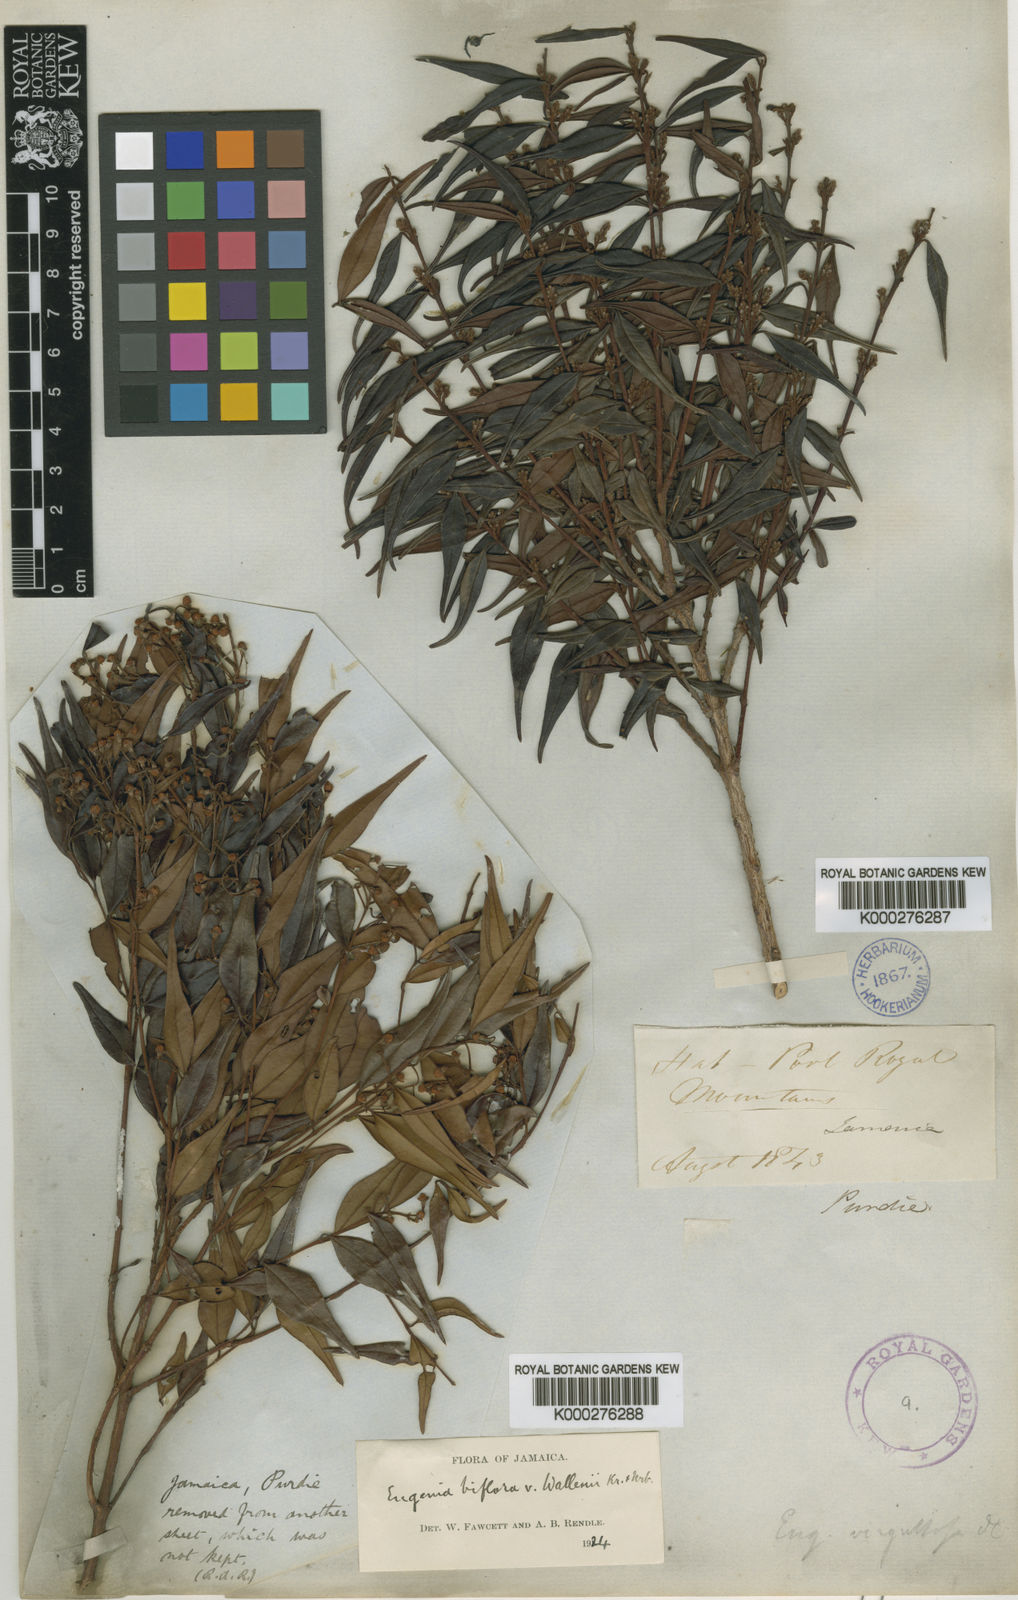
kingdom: Plantae
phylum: Tracheophyta
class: Magnoliopsida
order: Myrtales
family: Myrtaceae
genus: Eugenia
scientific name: Eugenia biflora
